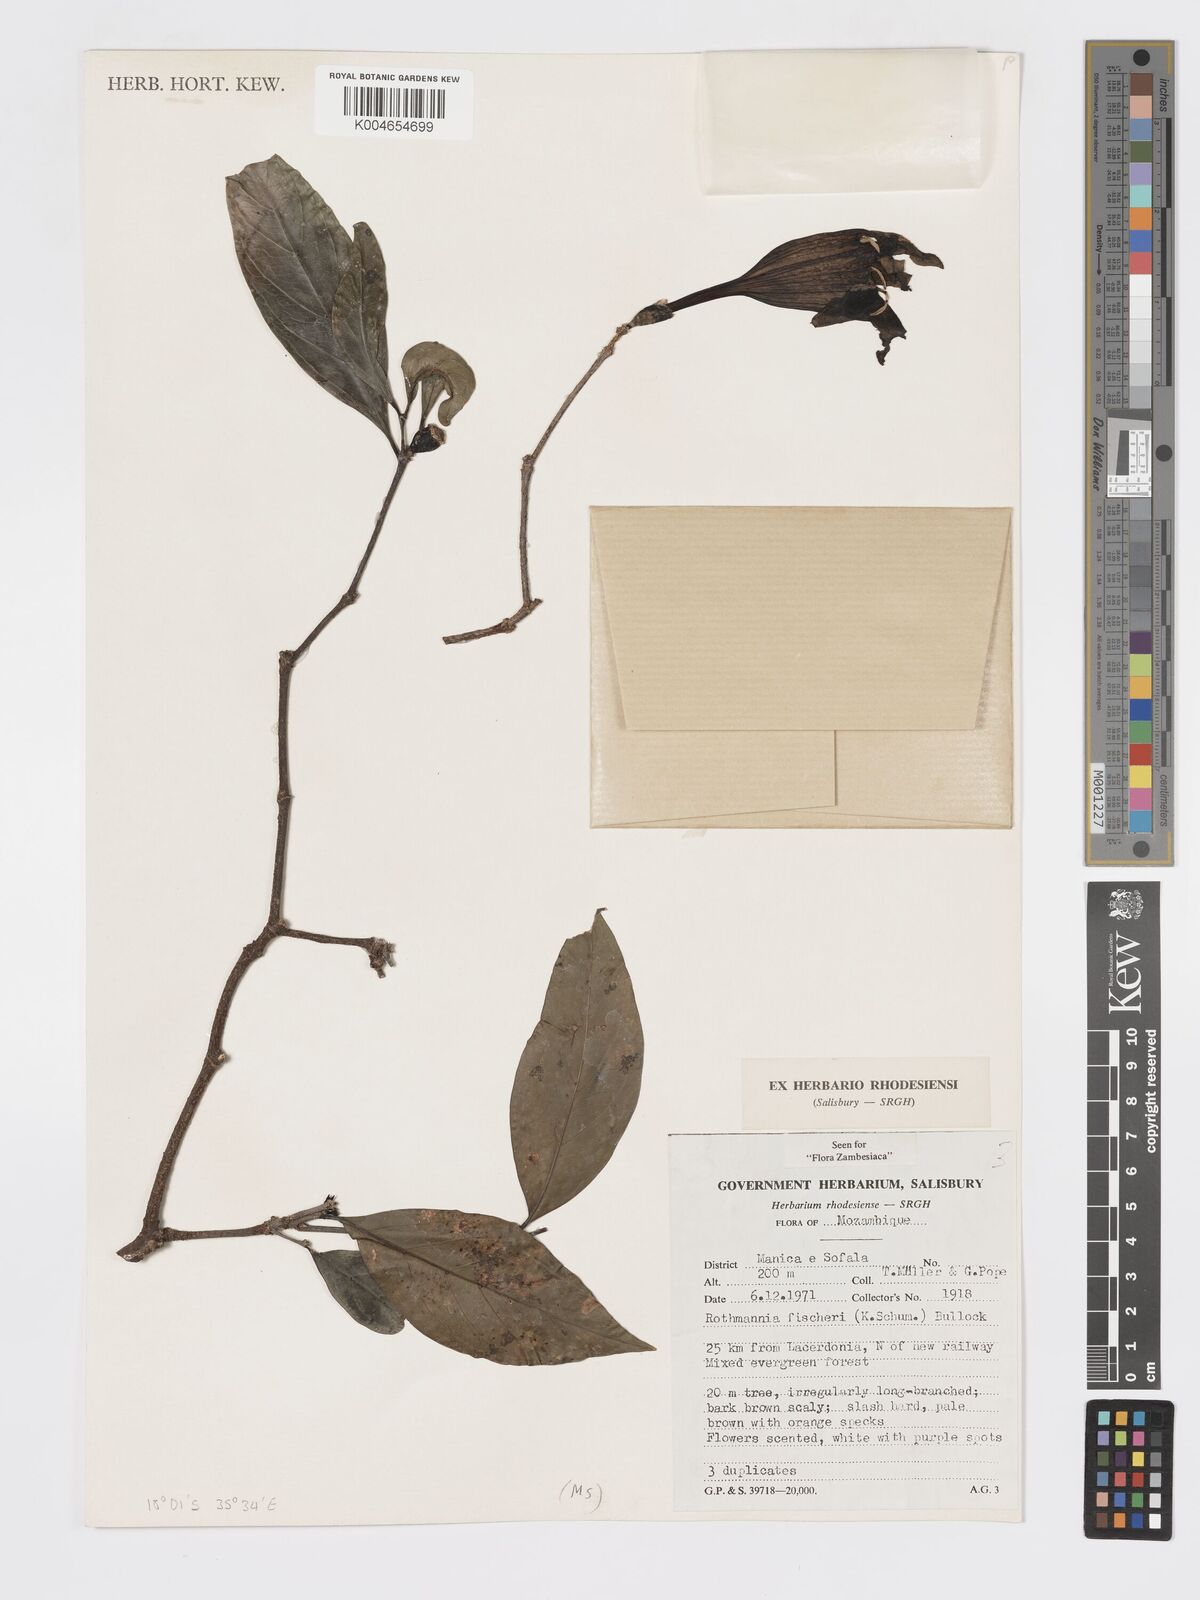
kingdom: Plantae
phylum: Tracheophyta
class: Magnoliopsida
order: Gentianales
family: Rubiaceae
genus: Rothmannia
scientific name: Rothmannia fischeri
